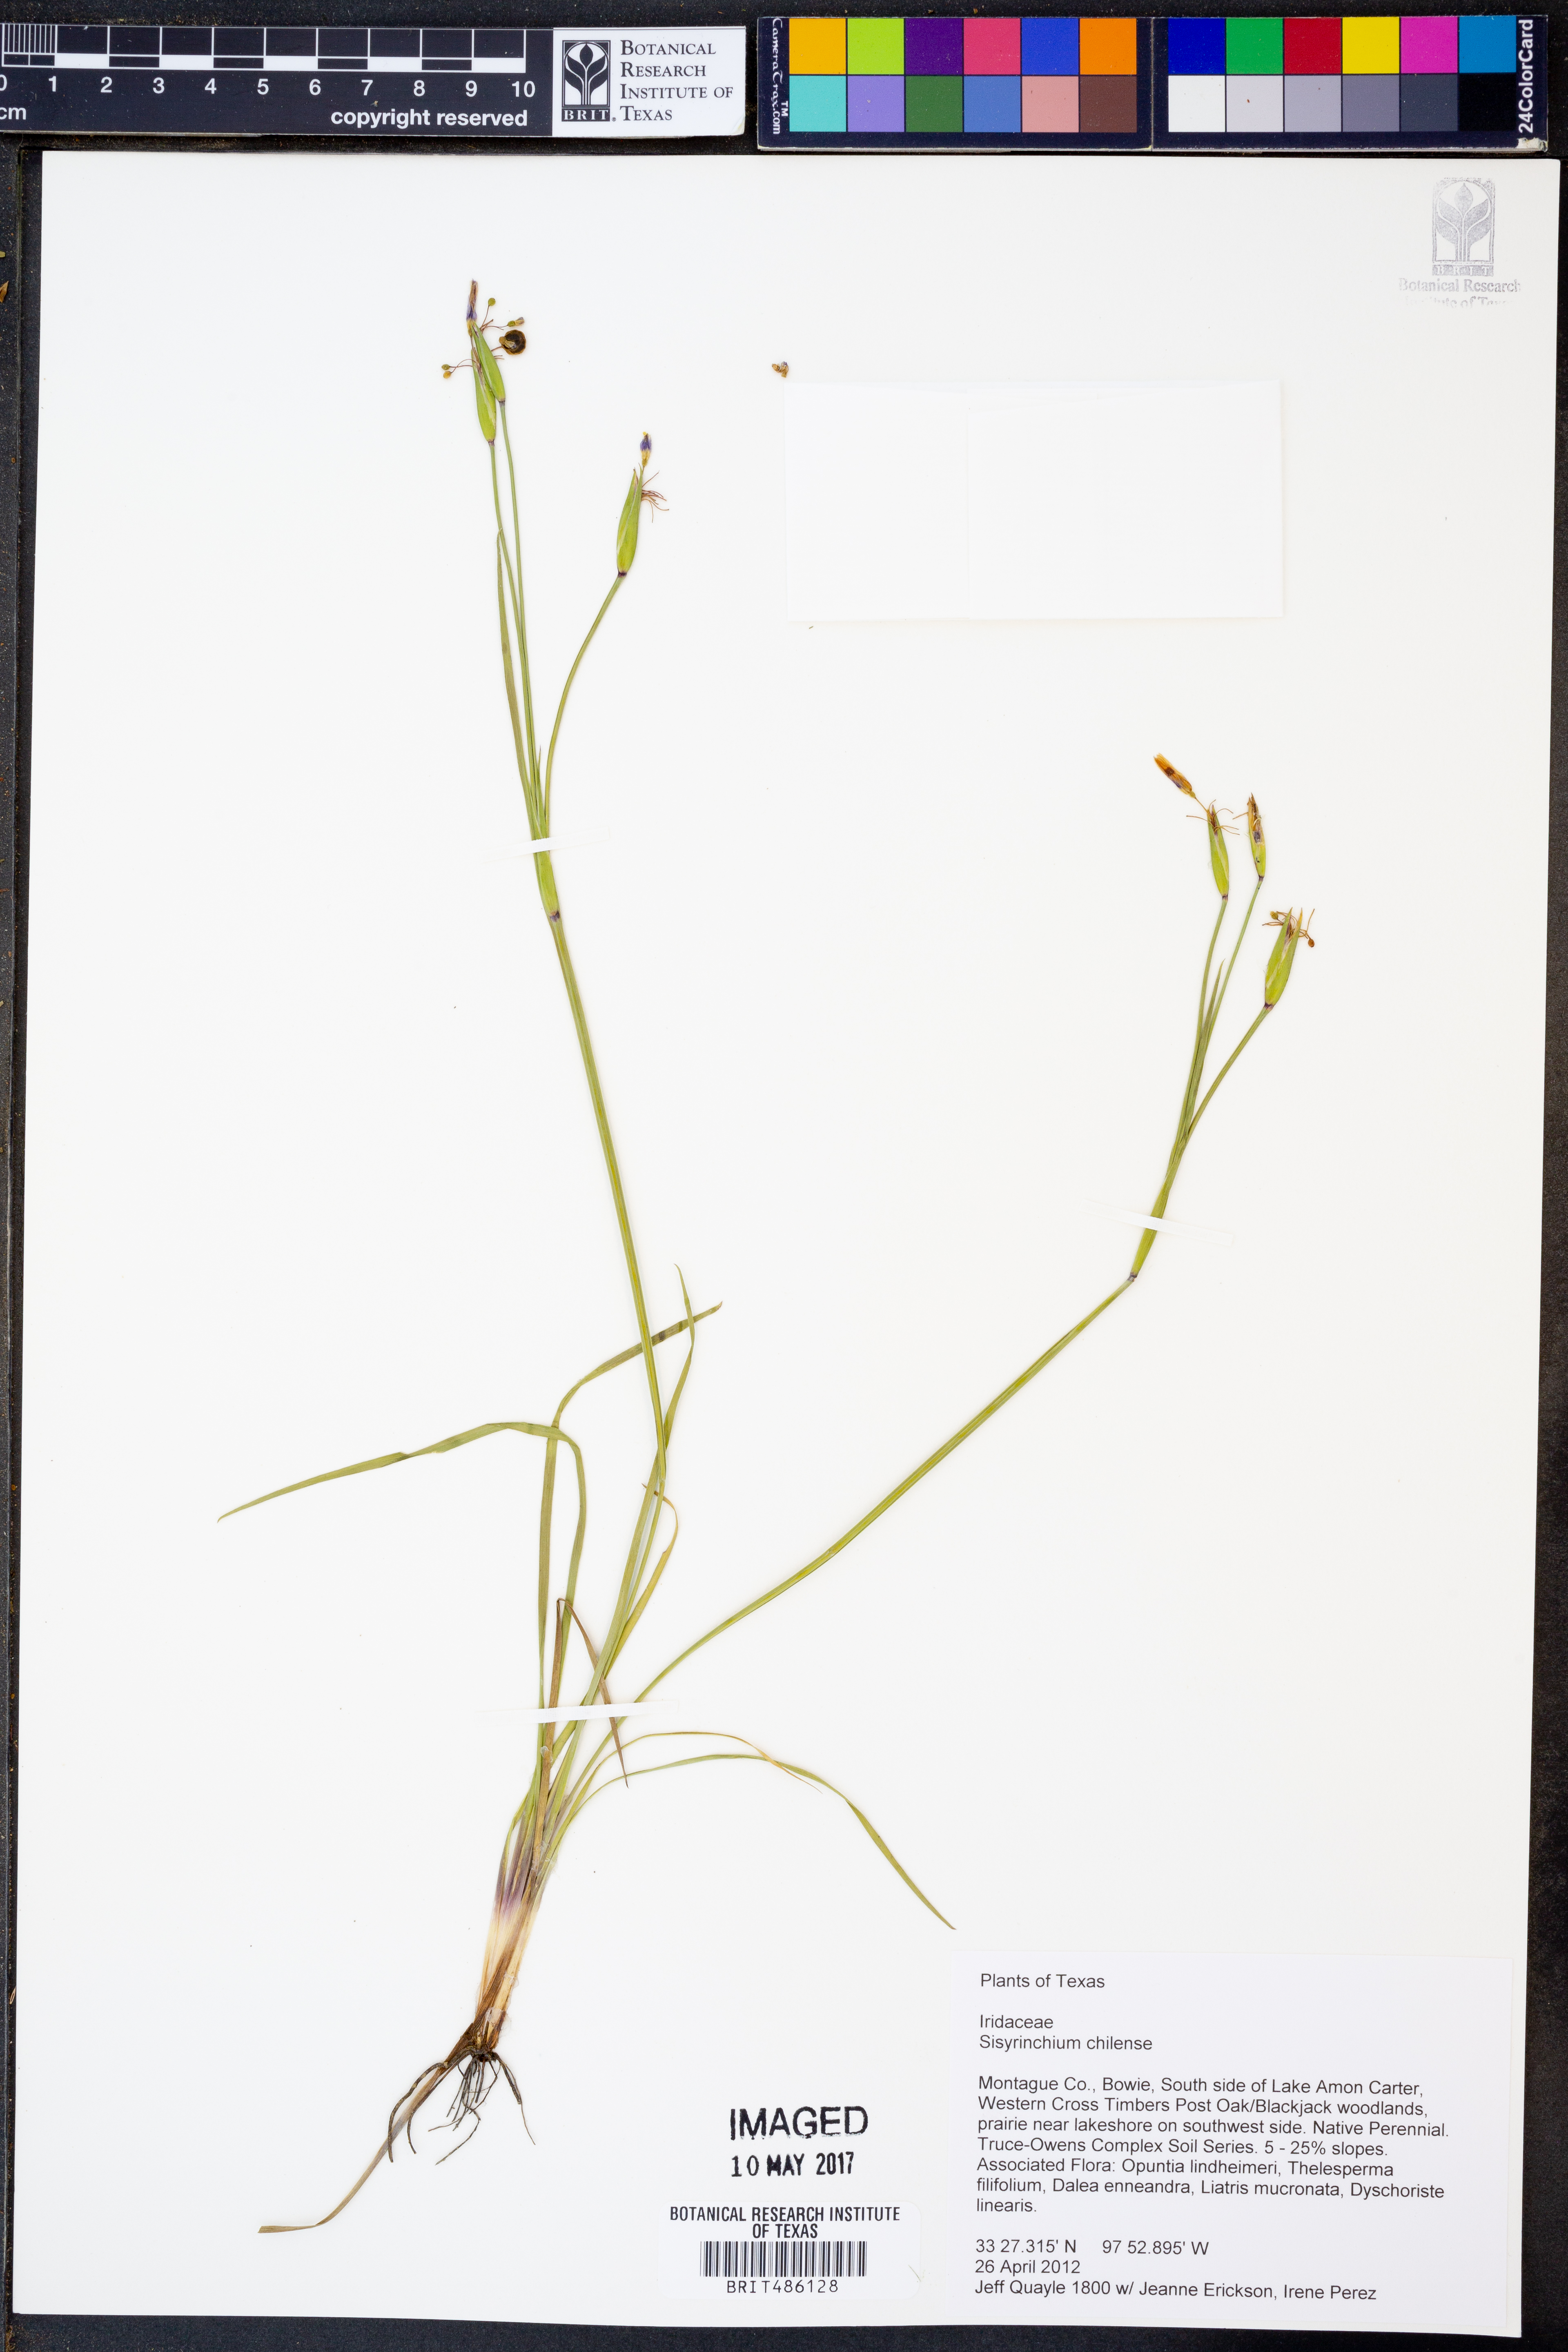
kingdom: Plantae
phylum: Tracheophyta
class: Liliopsida
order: Asparagales
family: Iridaceae
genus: Sisyrinchium
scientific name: Sisyrinchium chilense
